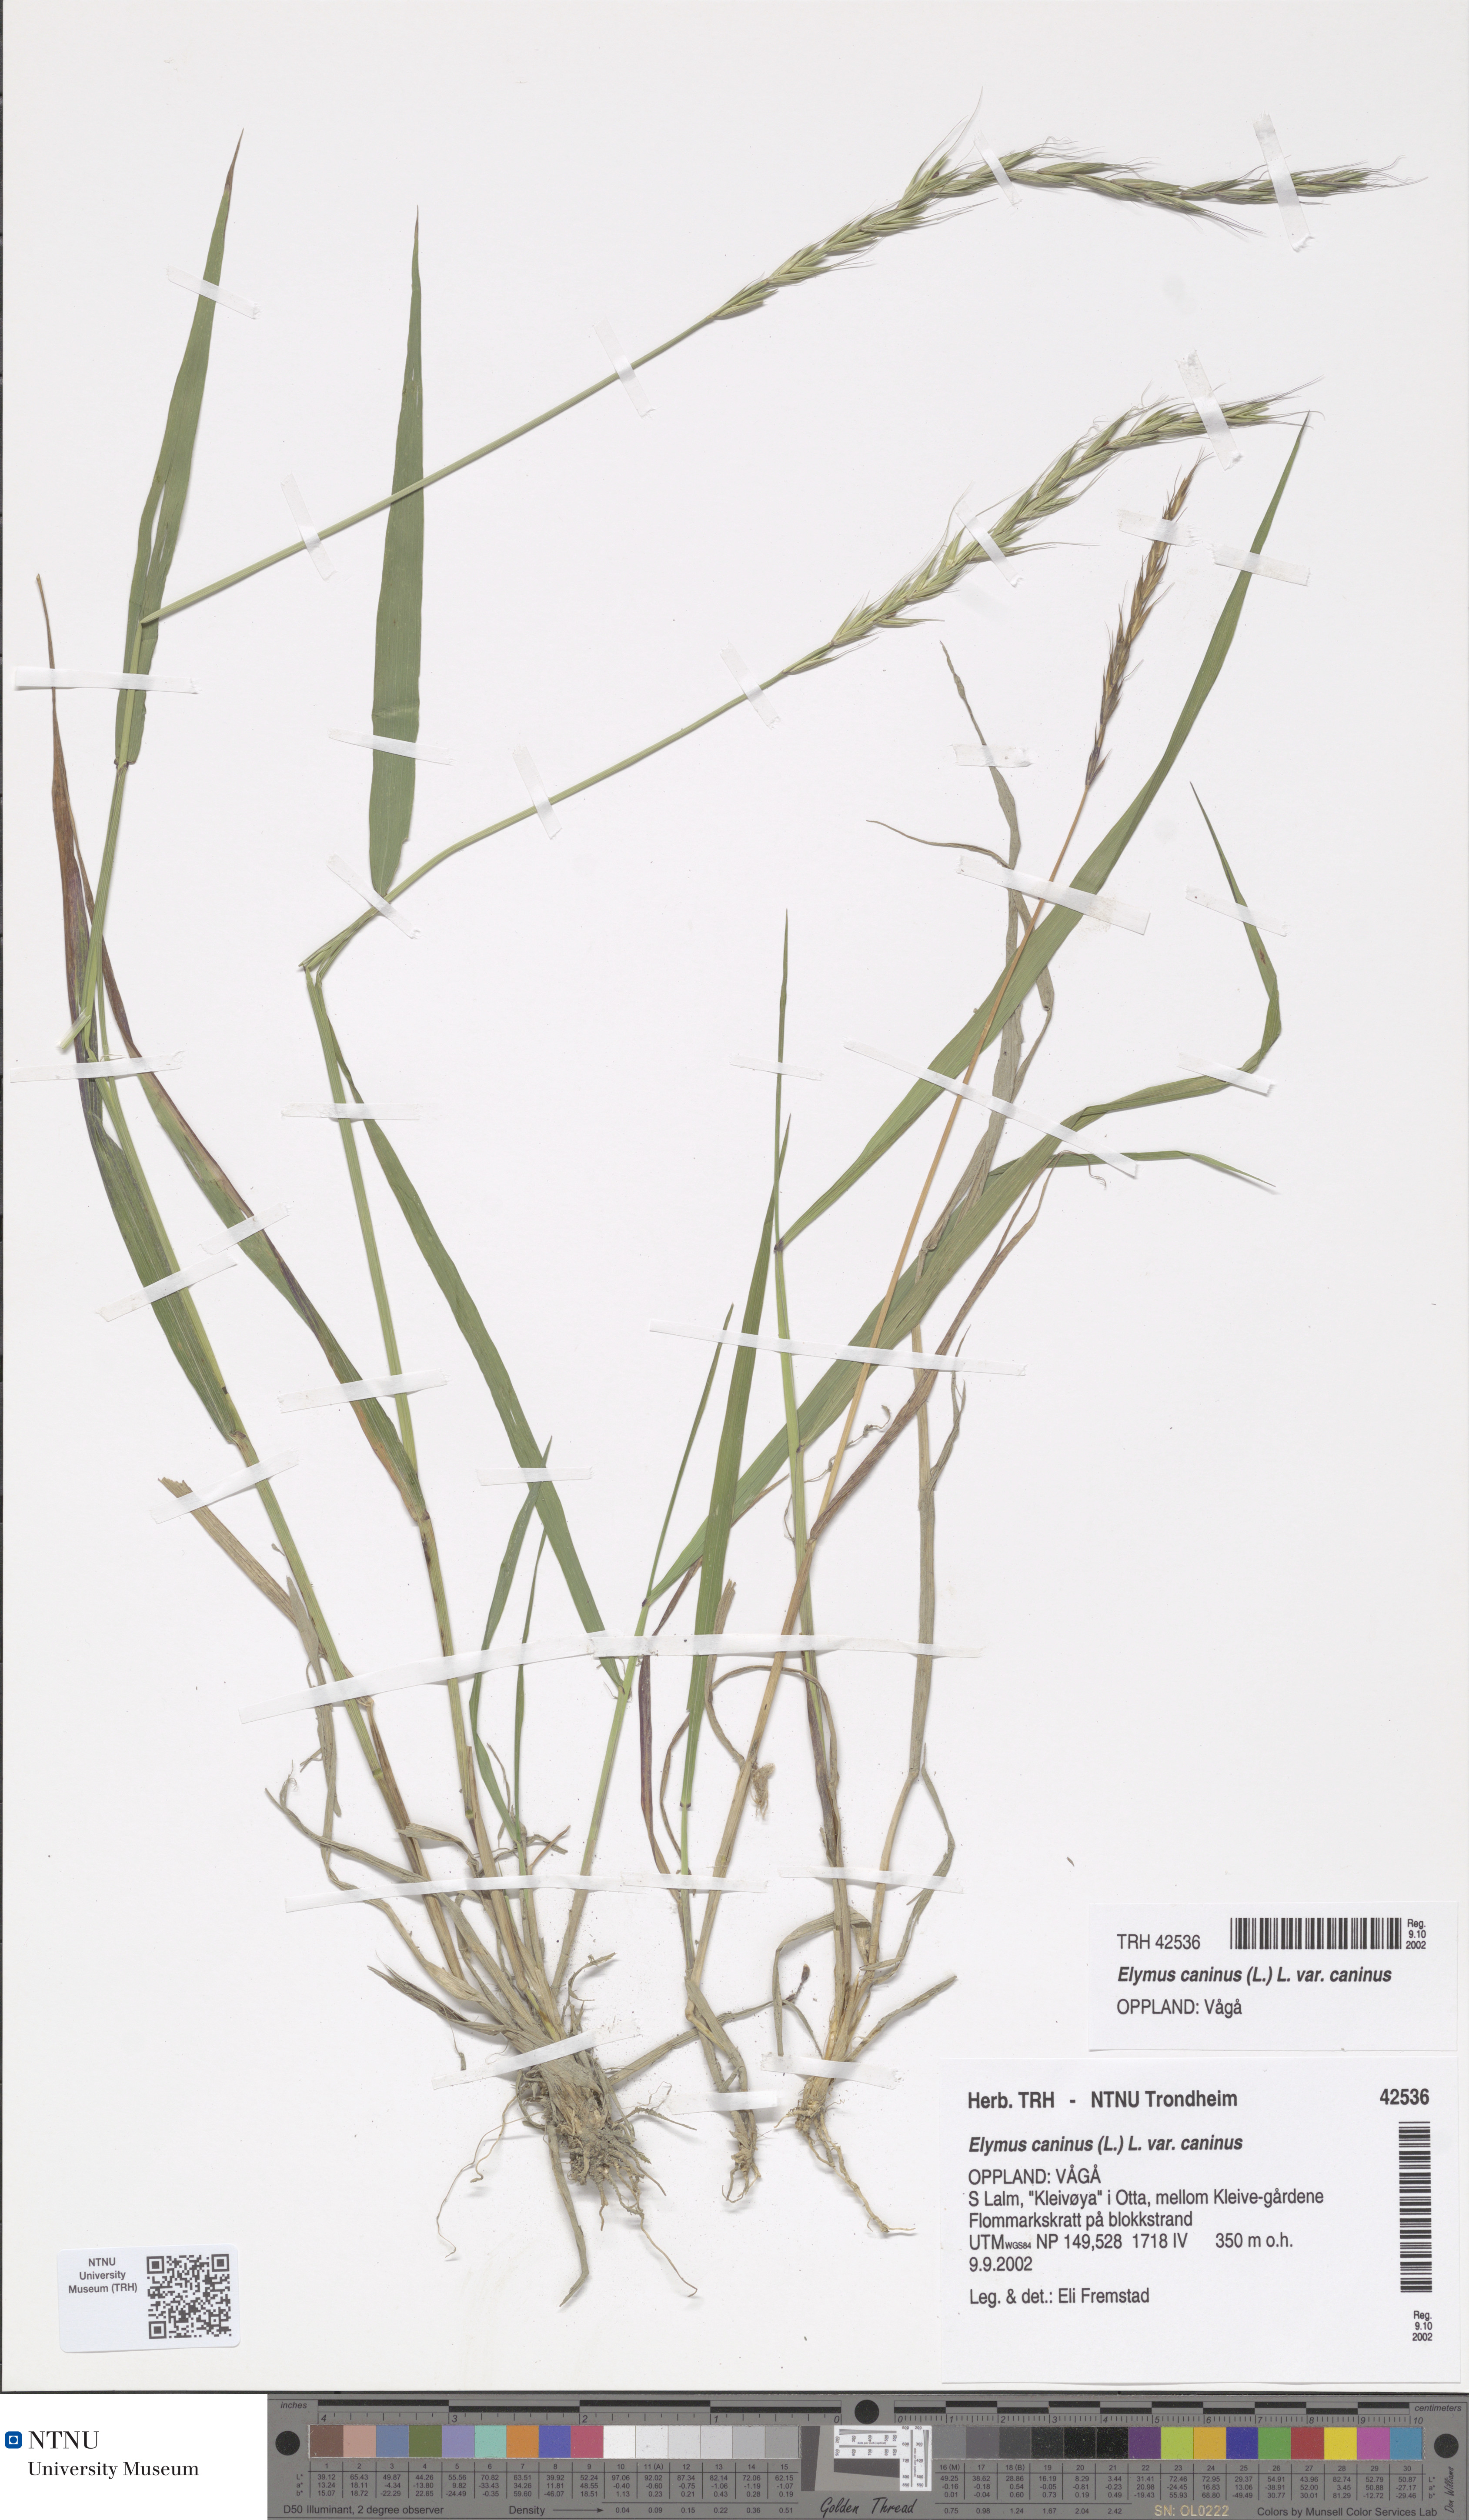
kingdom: Plantae
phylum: Tracheophyta
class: Liliopsida
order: Poales
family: Poaceae
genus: Elymus
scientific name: Elymus caninus
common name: Bearded couch
